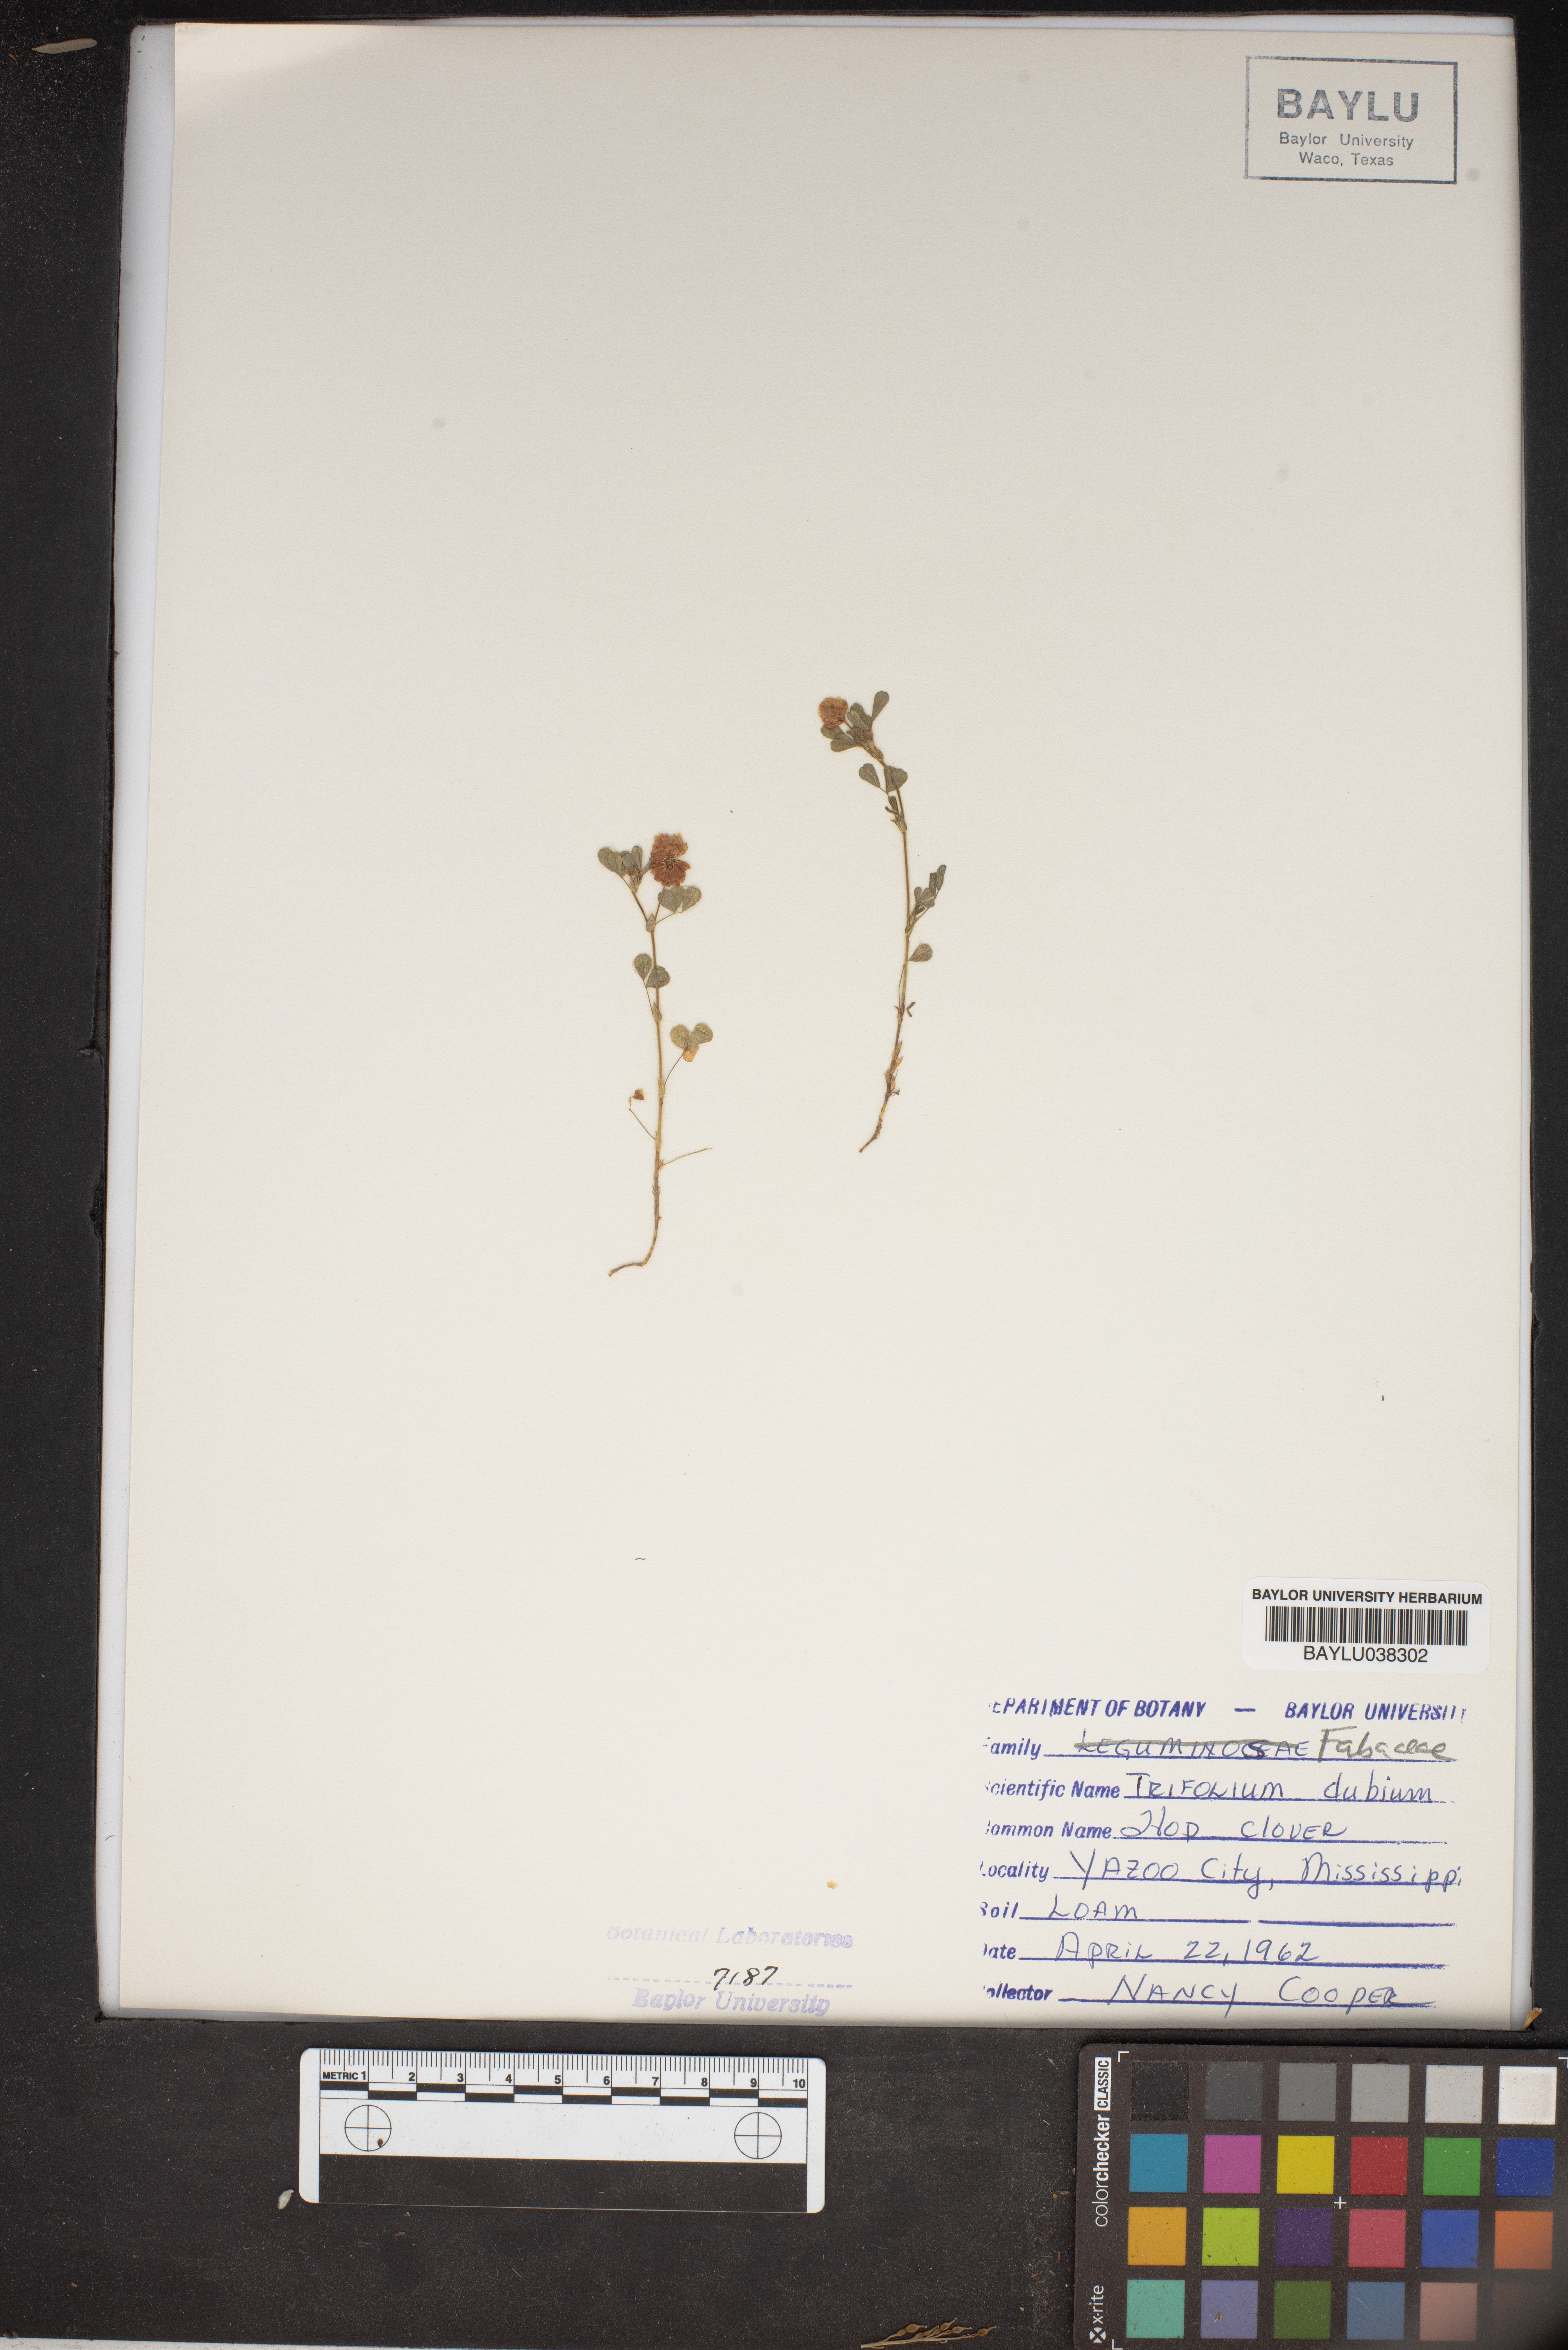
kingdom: Plantae
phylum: Tracheophyta
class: Magnoliopsida
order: Fabales
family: Fabaceae
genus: Trifolium
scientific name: Trifolium dubium
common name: Suckling clover
